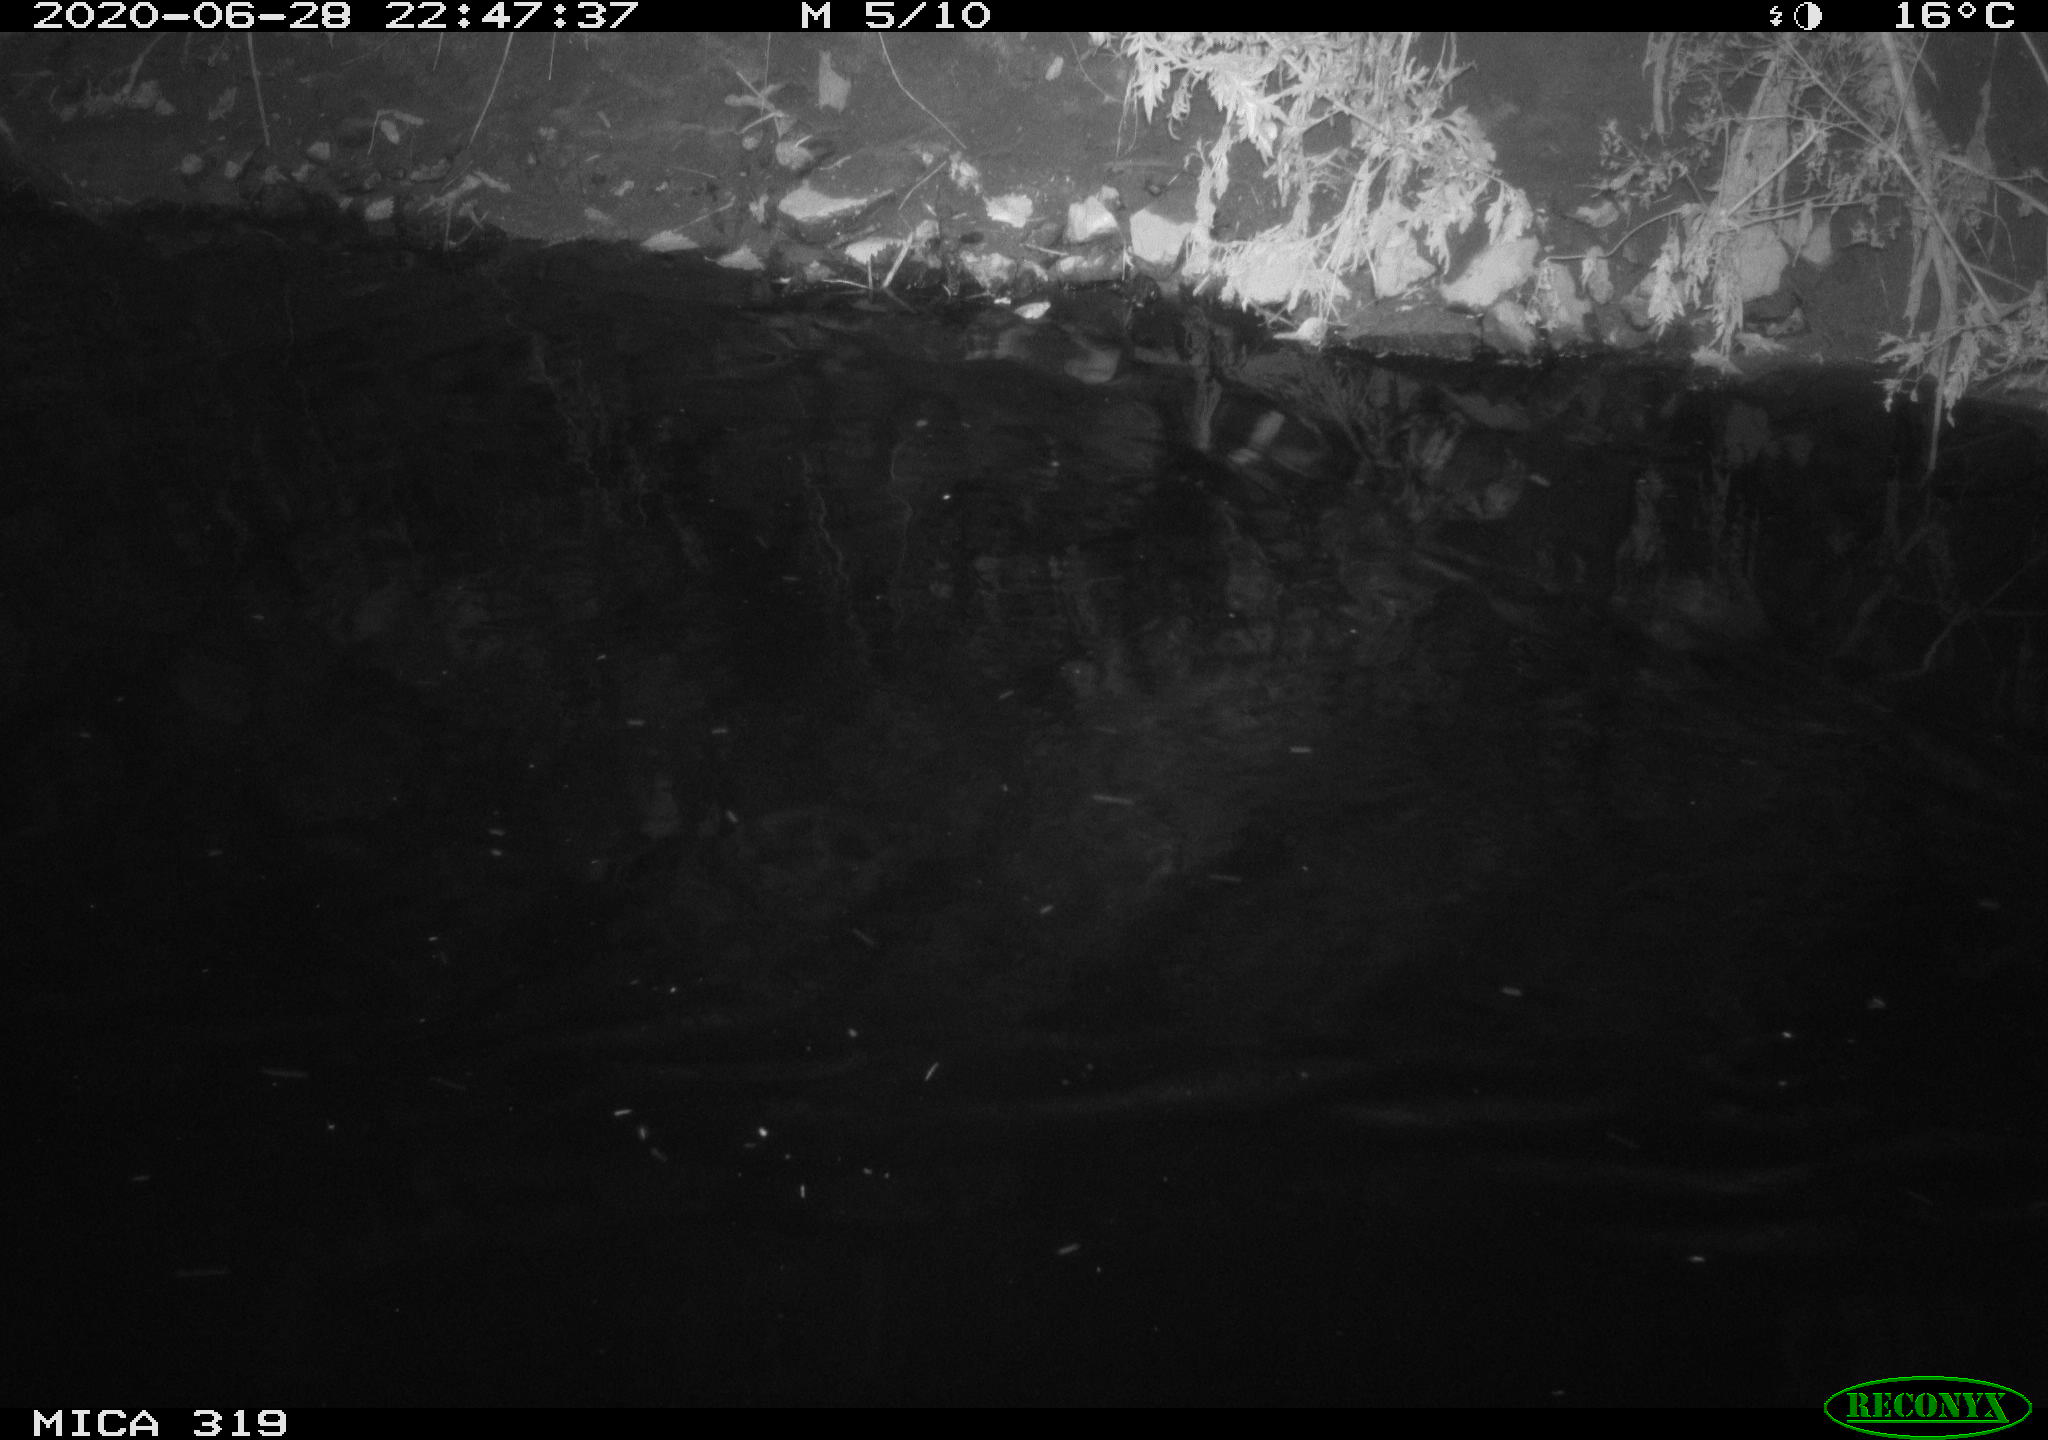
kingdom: Animalia
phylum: Chordata
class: Aves
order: Anseriformes
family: Anatidae
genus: Anas
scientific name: Anas platyrhynchos
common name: Mallard
